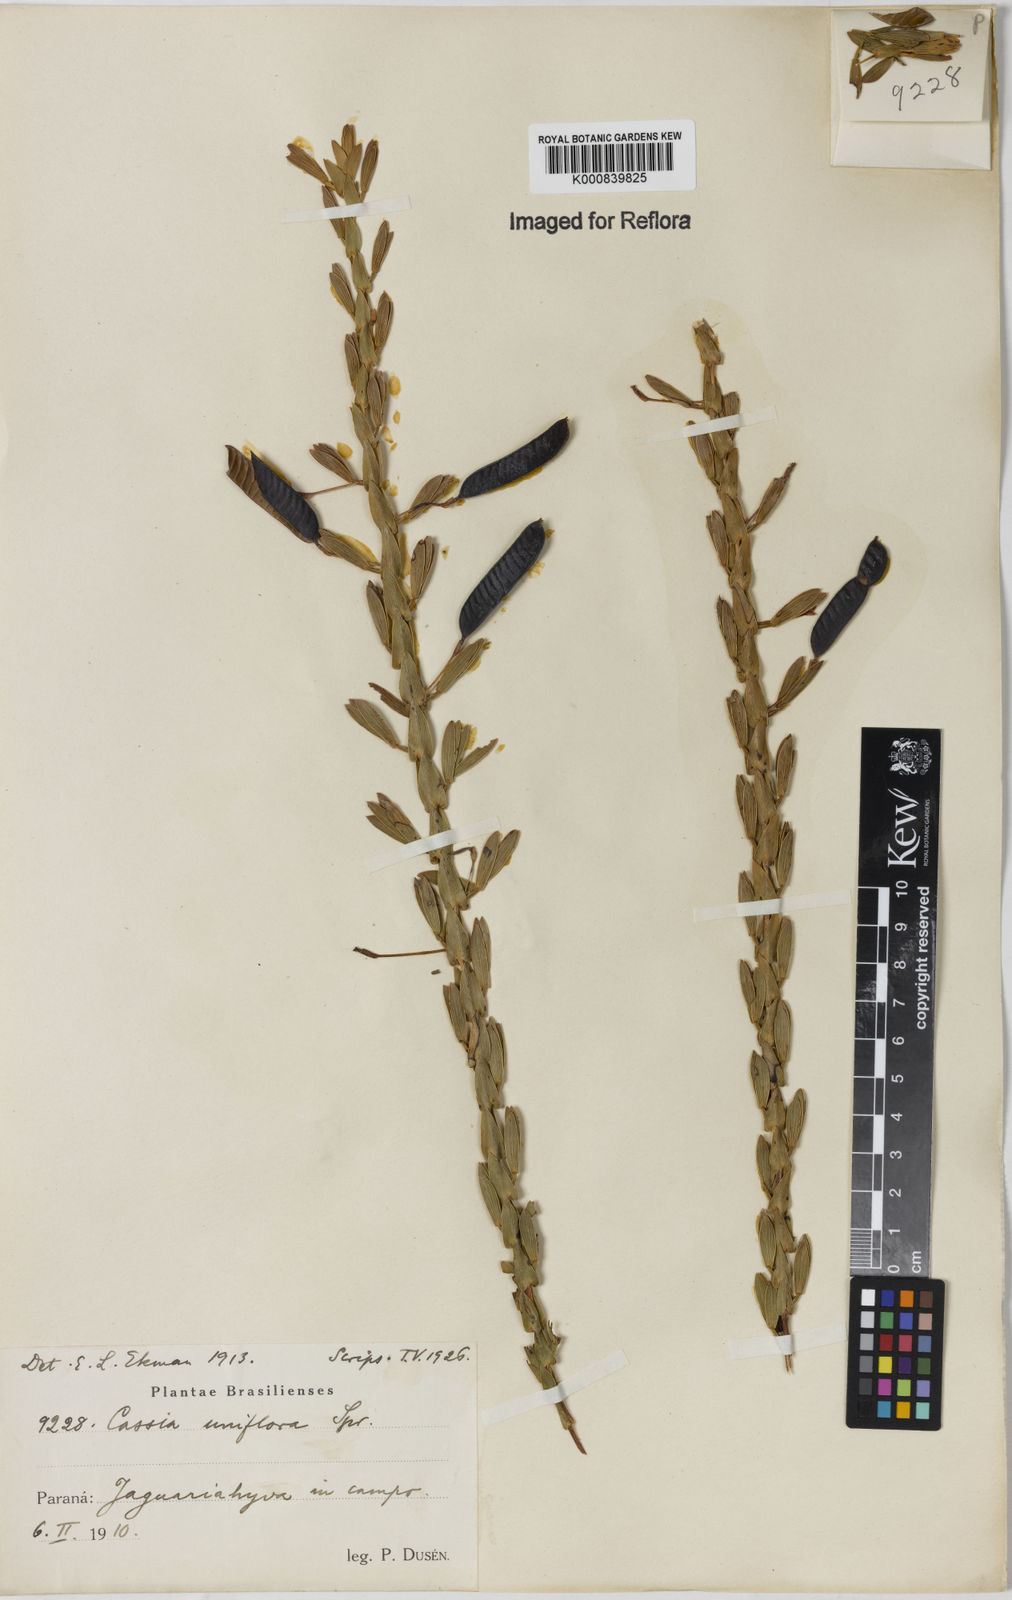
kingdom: Plantae
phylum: Tracheophyta
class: Magnoliopsida
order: Fabales
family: Fabaceae
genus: Chamaecrista
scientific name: Chamaecrista langsdorffii
